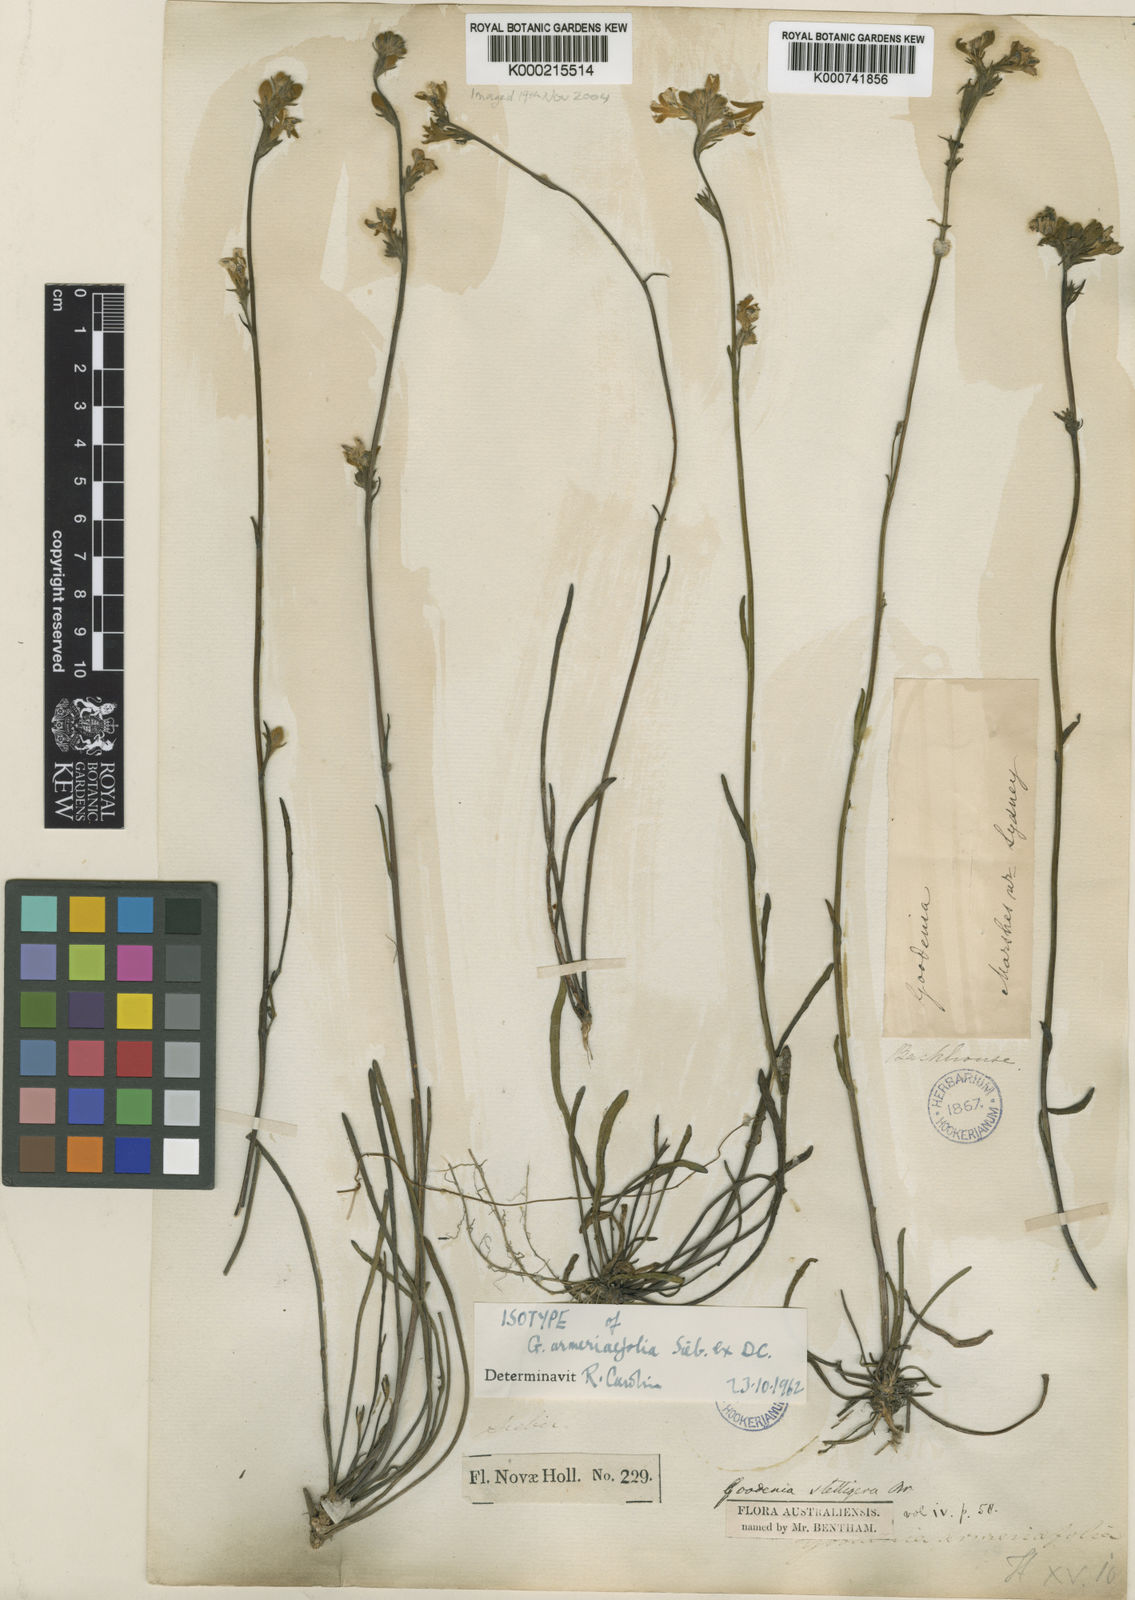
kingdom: Plantae
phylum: Tracheophyta
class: Magnoliopsida
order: Asterales
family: Goodeniaceae
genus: Goodenia
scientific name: Goodenia stelligera
